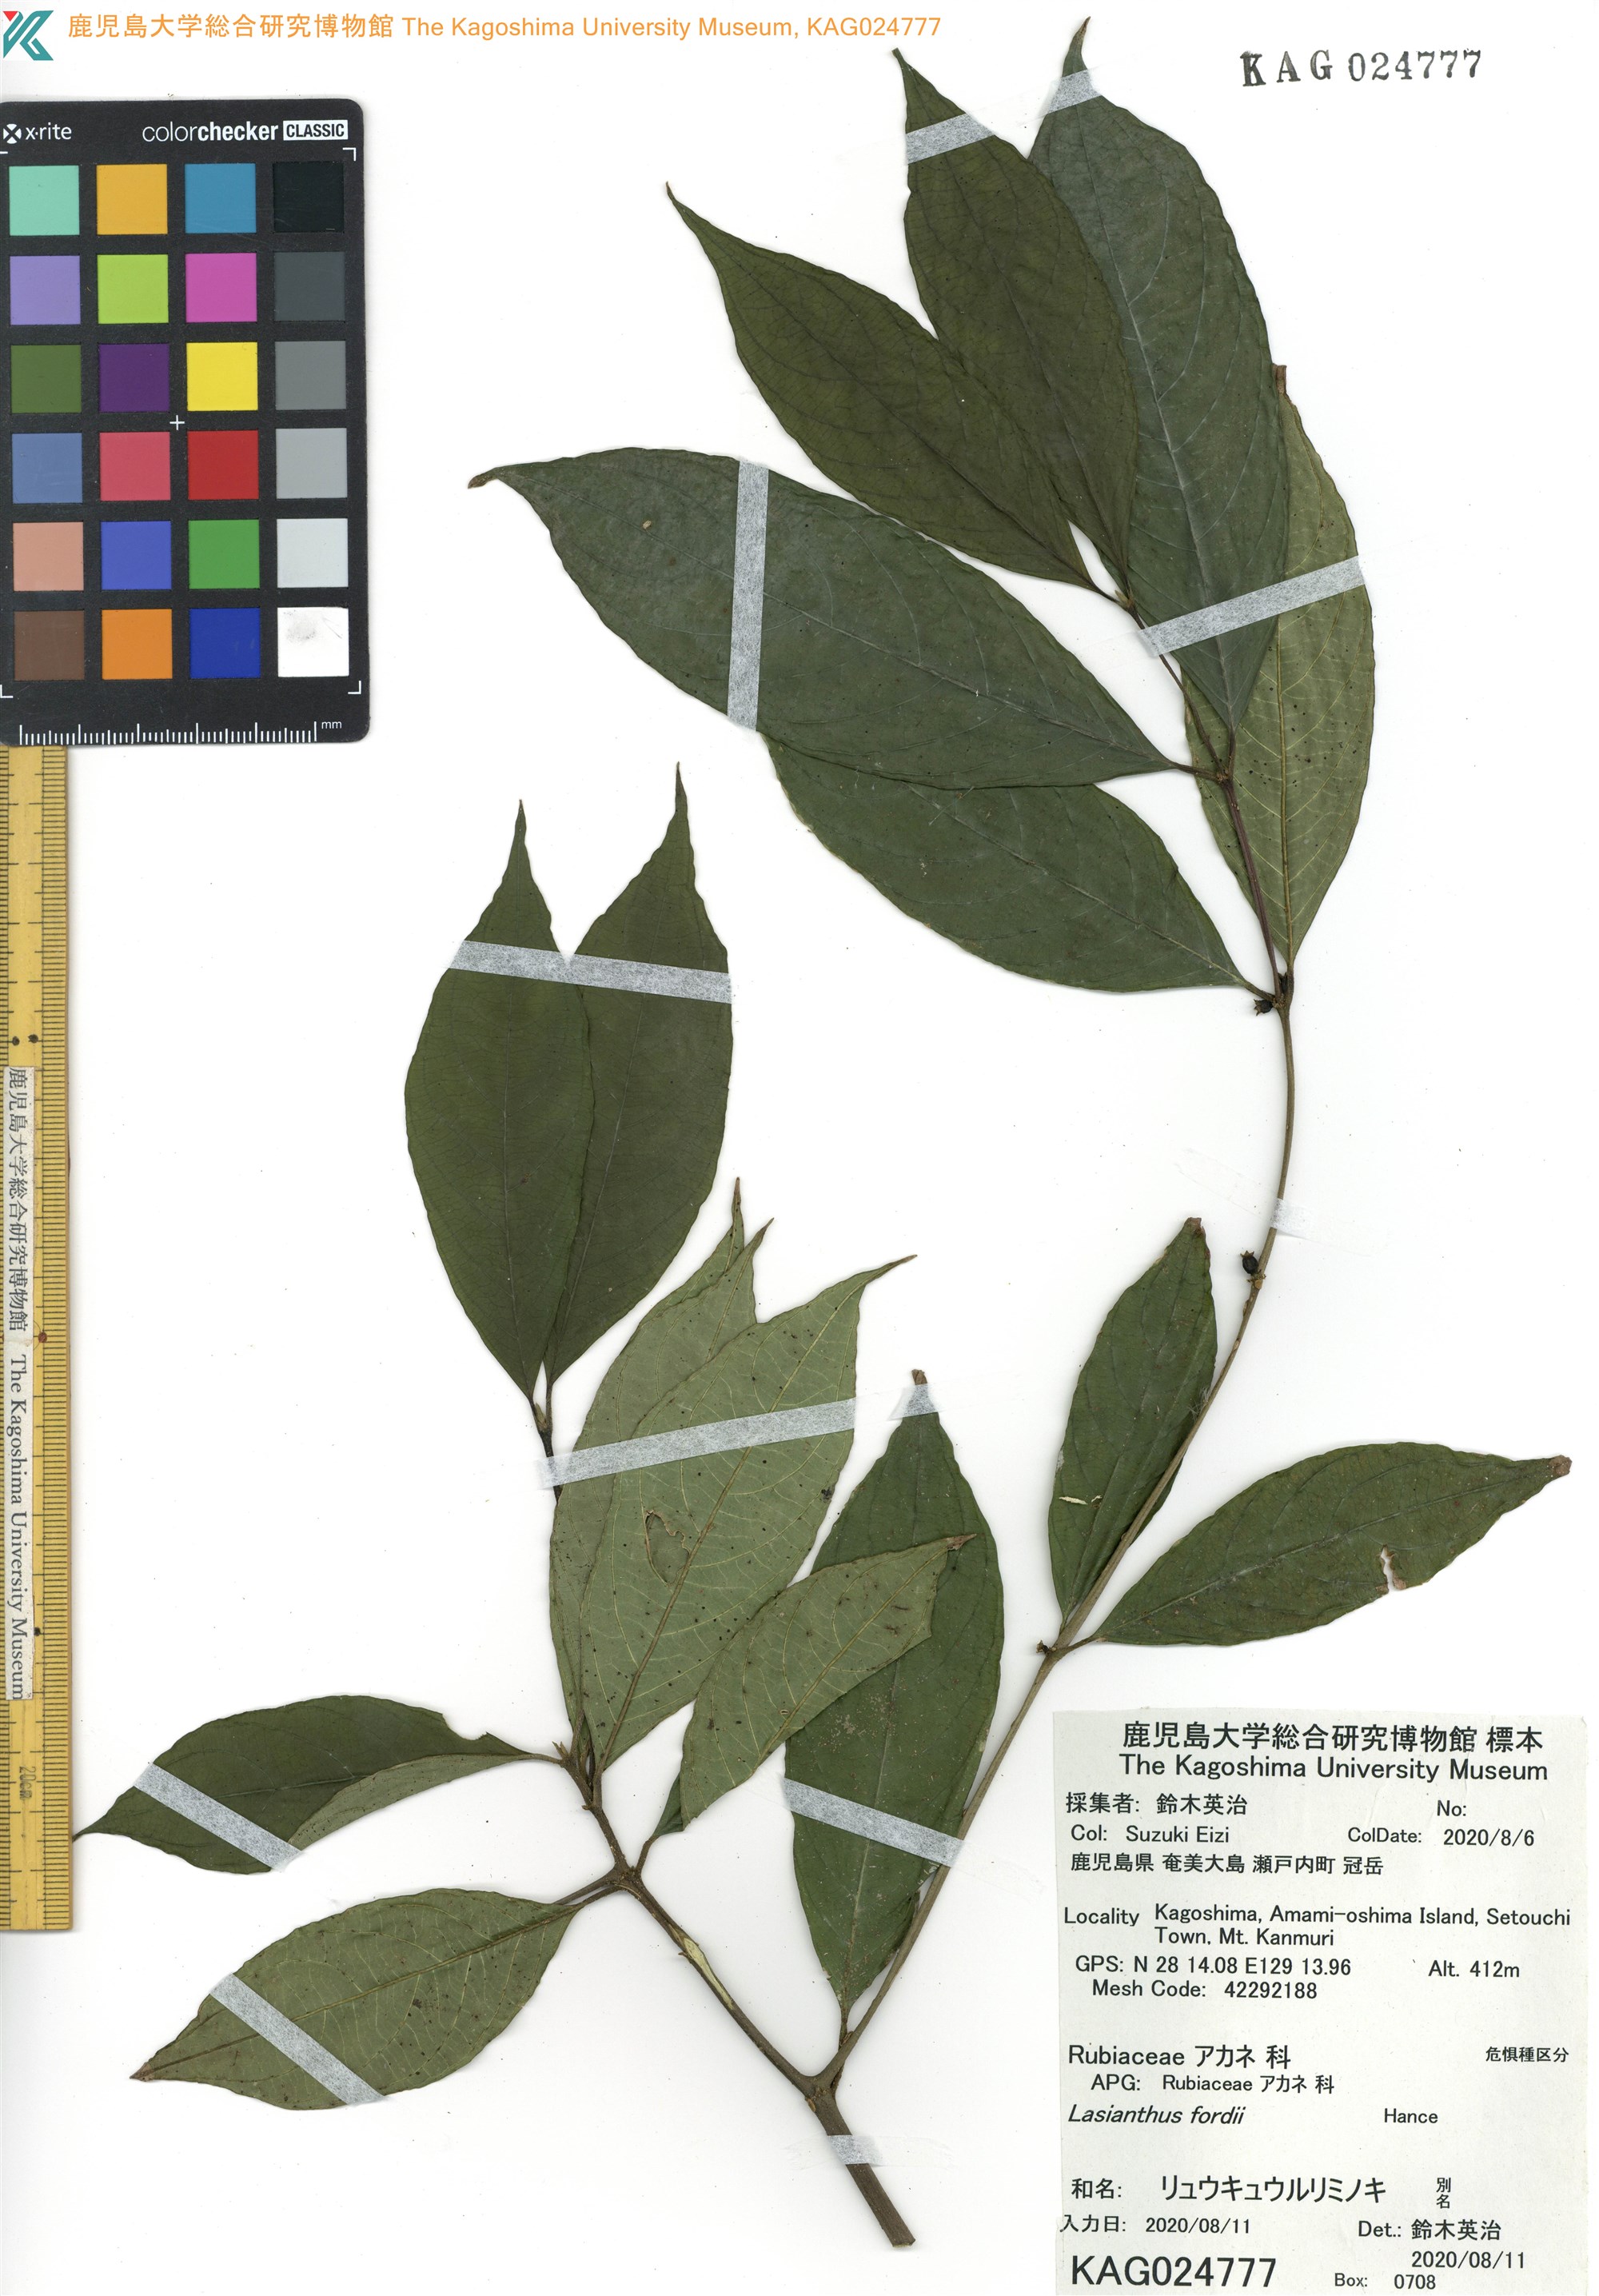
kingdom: Plantae
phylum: Tracheophyta
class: Magnoliopsida
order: Gentianales
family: Rubiaceae
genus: Lasianthus
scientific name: Lasianthus fordii
